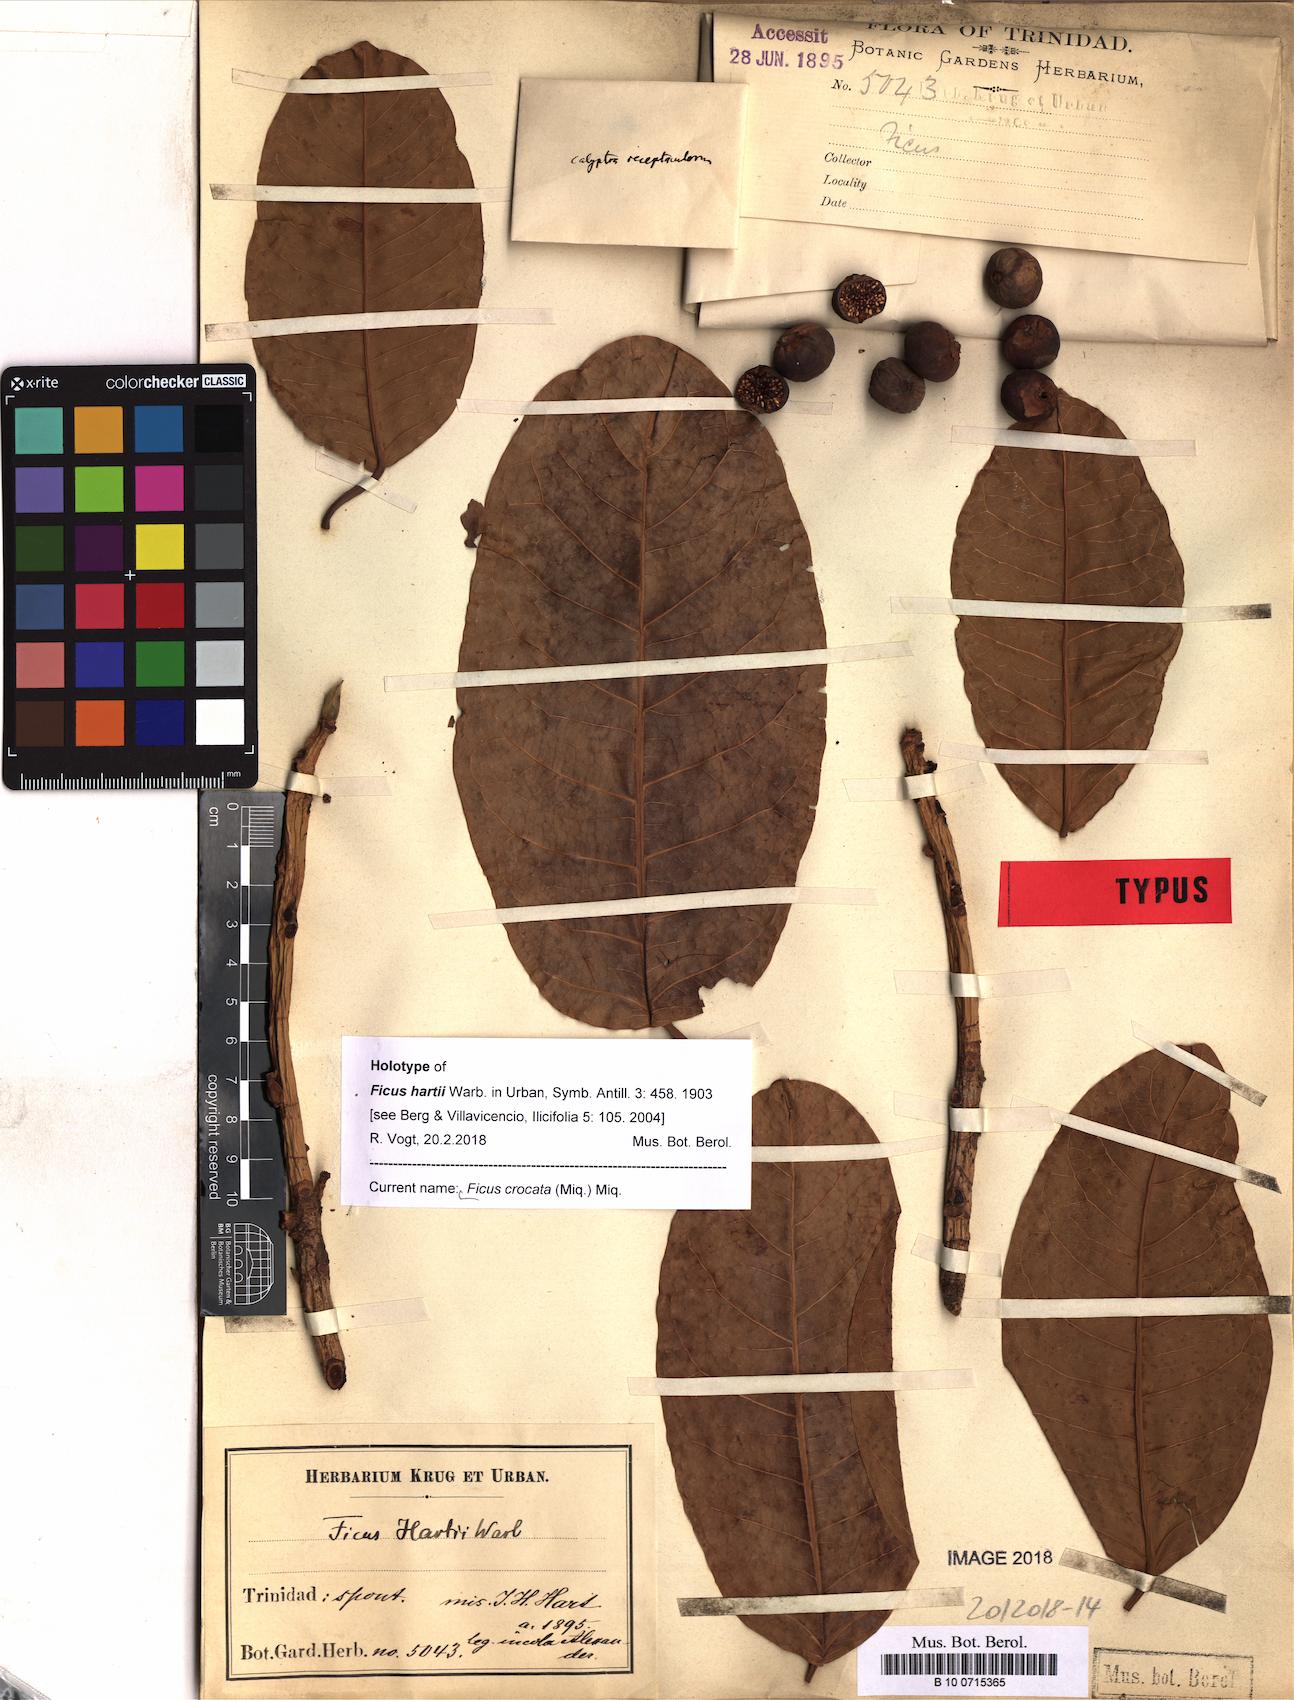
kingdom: Plantae
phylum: Tracheophyta
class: Magnoliopsida
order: Rosales
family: Moraceae
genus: Ficus
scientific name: Ficus crocata
